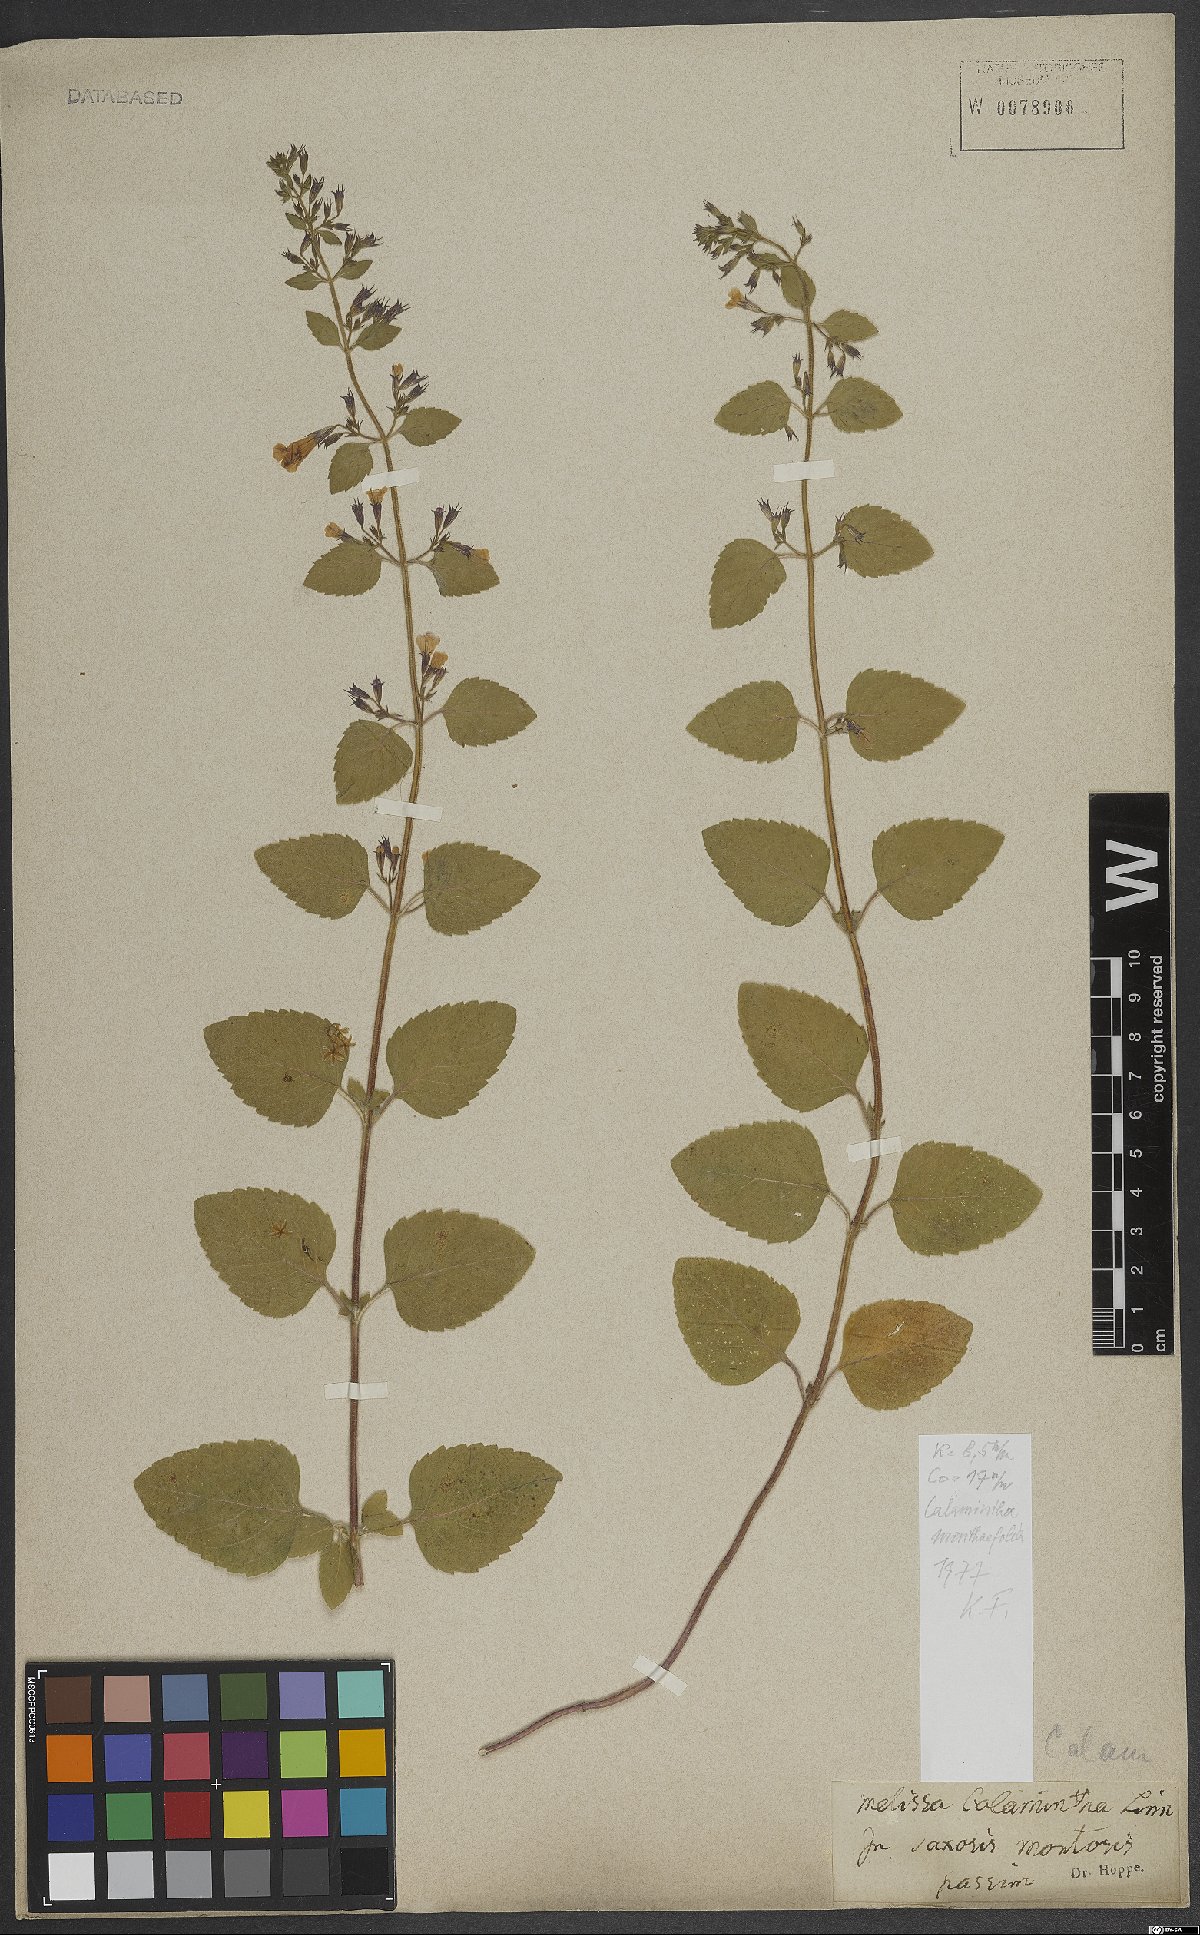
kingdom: Plantae
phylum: Tracheophyta
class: Magnoliopsida
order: Lamiales
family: Lamiaceae
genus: Clinopodium
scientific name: Clinopodium menthifolium
